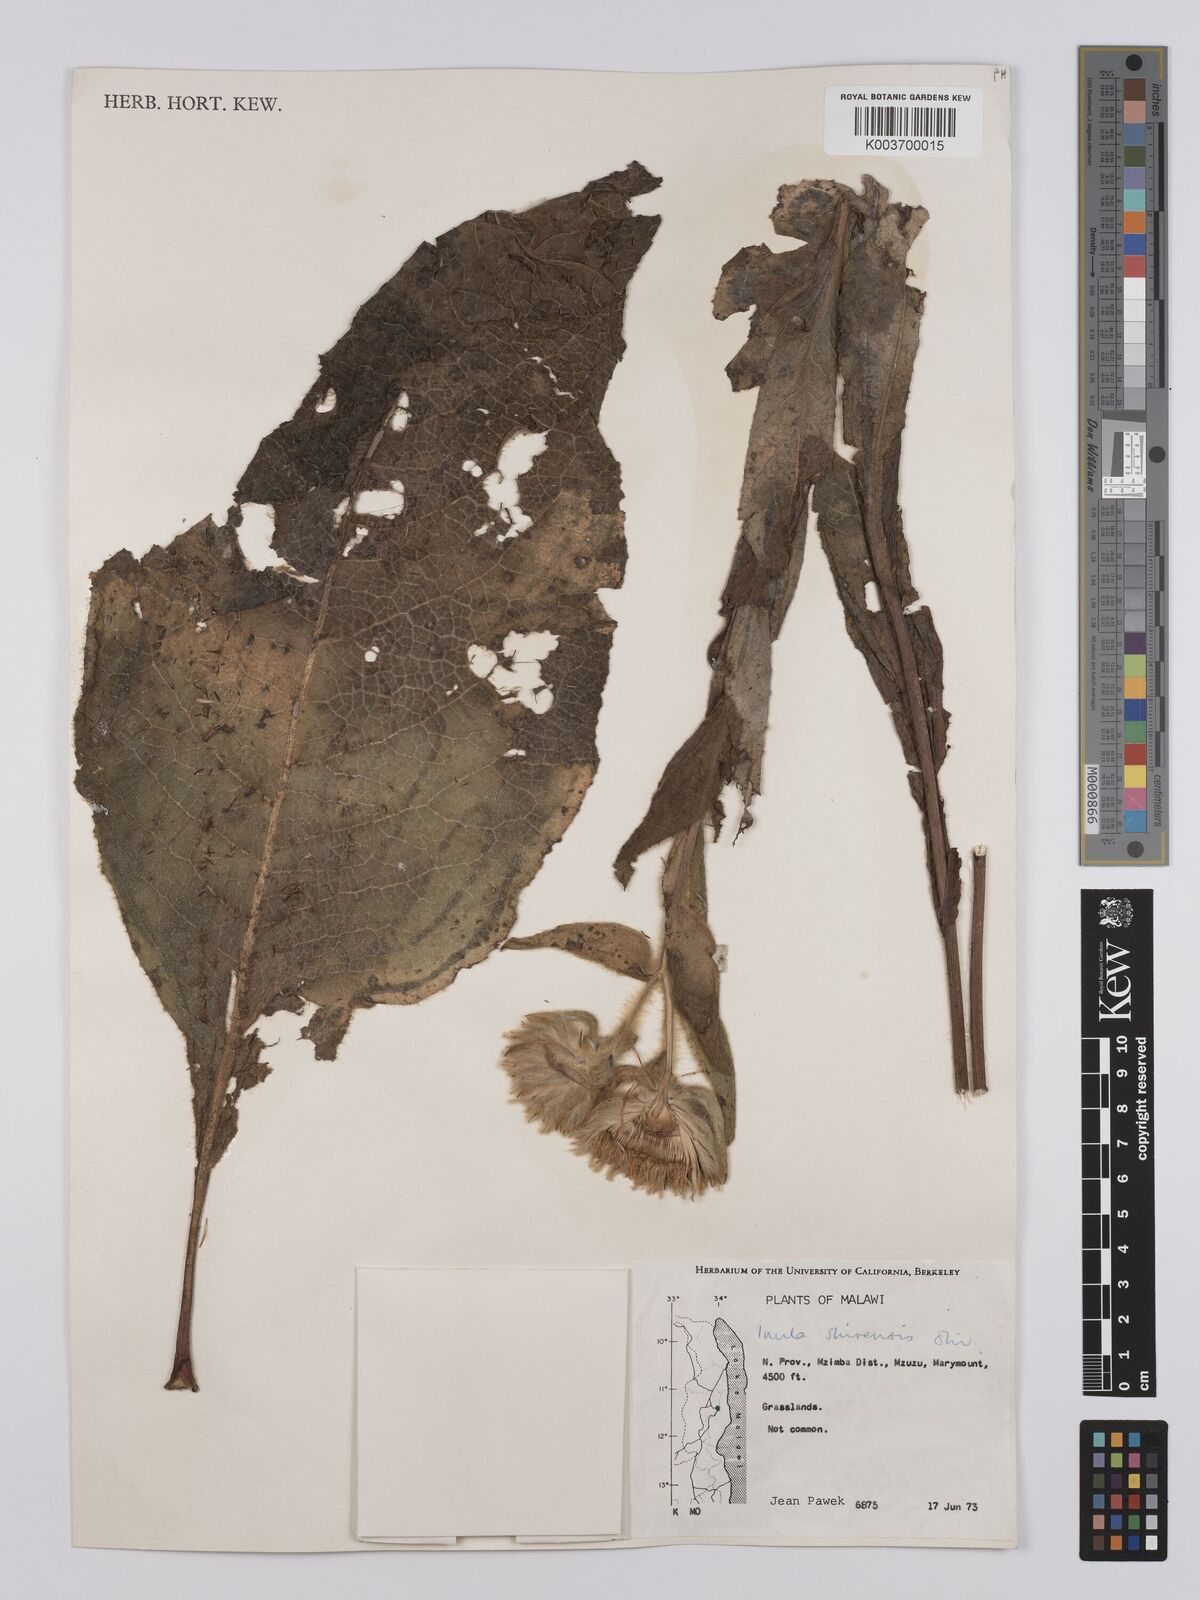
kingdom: Plantae
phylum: Tracheophyta
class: Magnoliopsida
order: Asterales
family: Asteraceae
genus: Monactinocephalus
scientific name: Monactinocephalus shirensis
